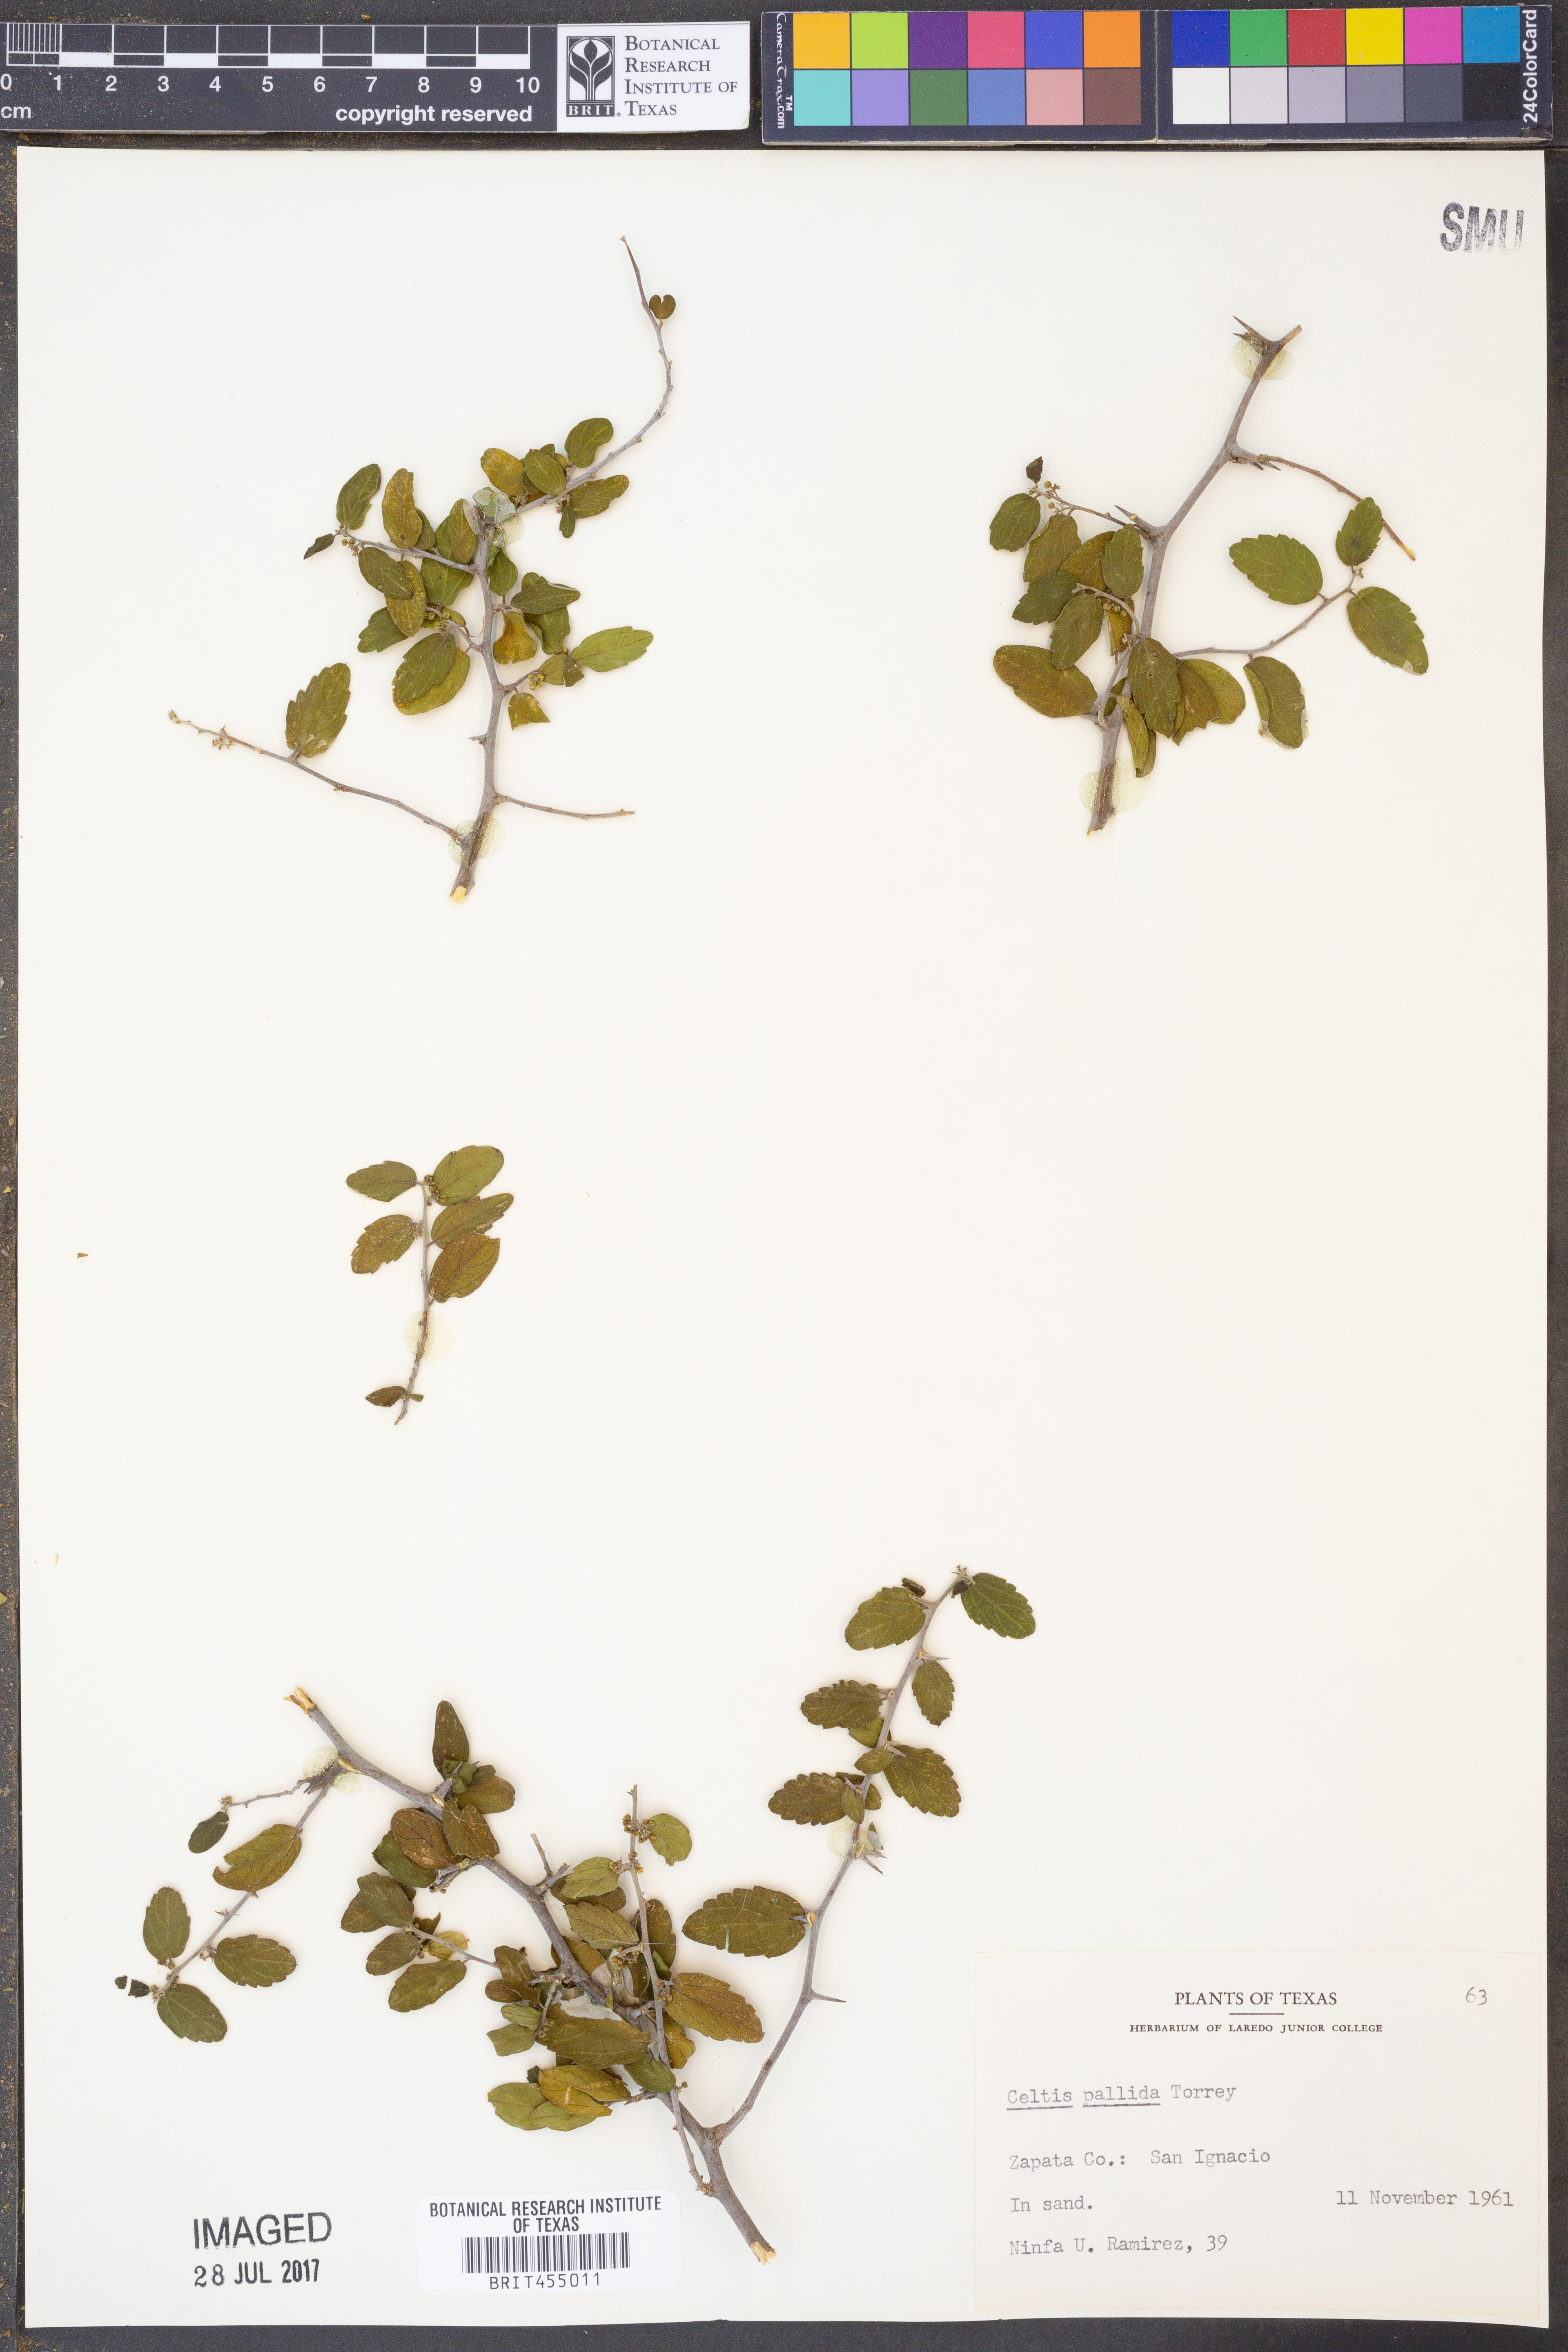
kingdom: Plantae
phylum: Tracheophyta
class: Magnoliopsida
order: Rosales
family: Cannabaceae
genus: Celtis
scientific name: Celtis pallida
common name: Desert hackberry
